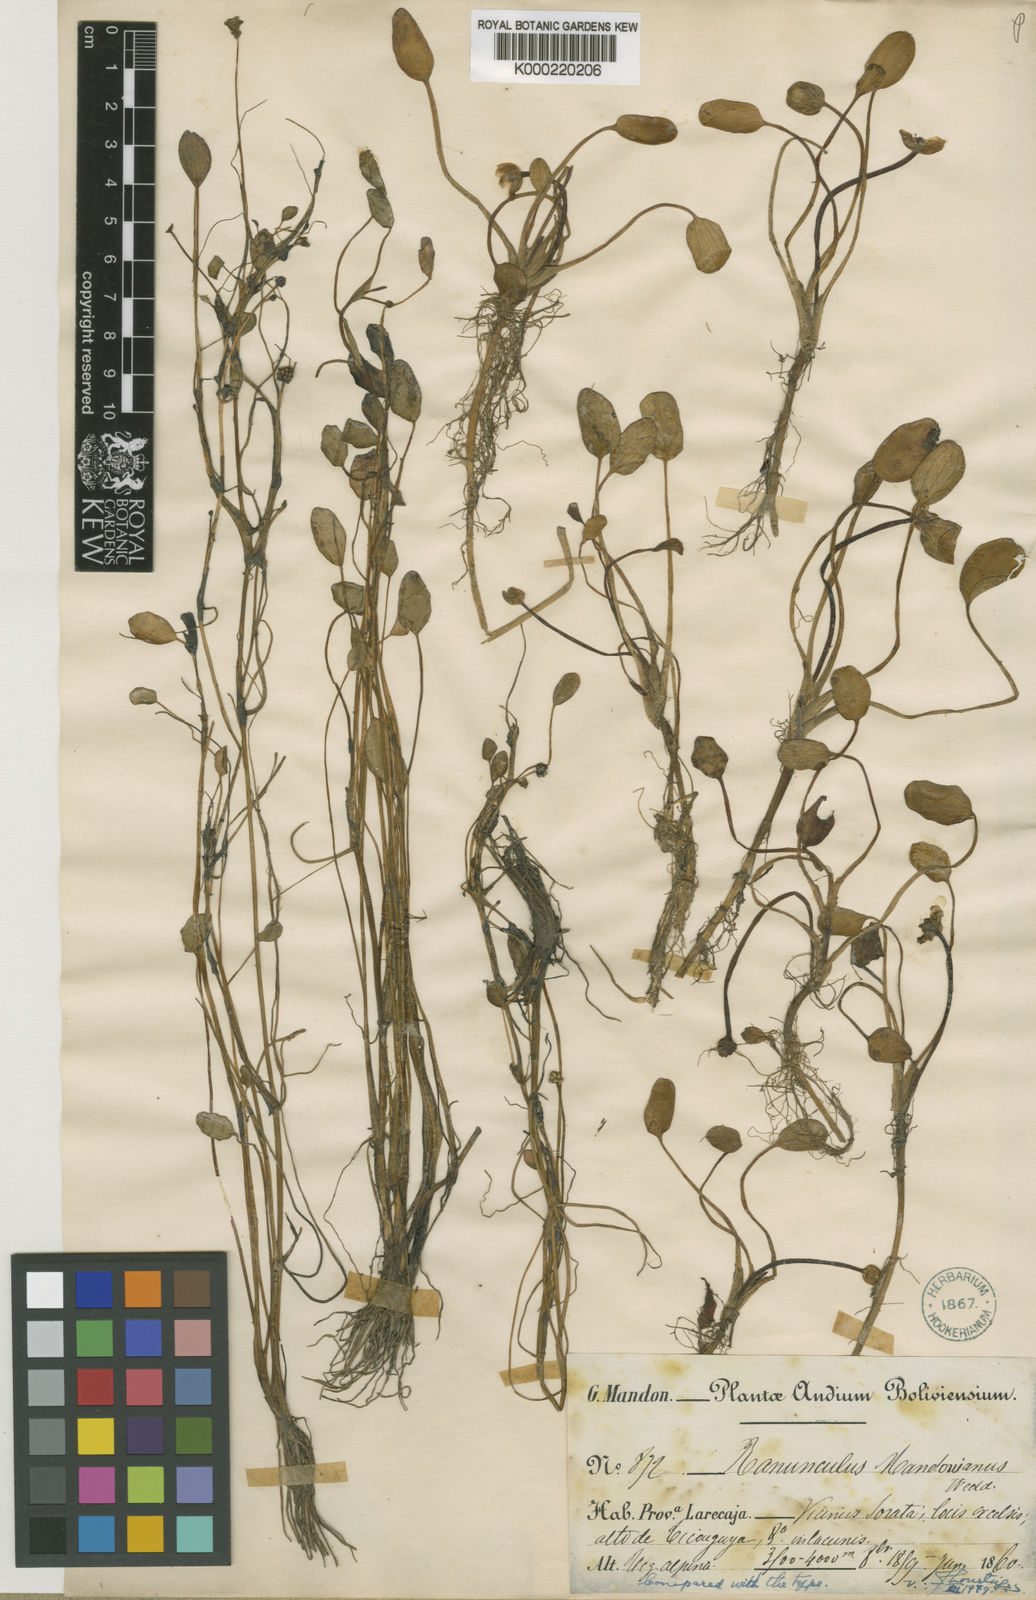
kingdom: Plantae
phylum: Tracheophyta
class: Magnoliopsida
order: Ranunculales
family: Ranunculaceae
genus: Ranunculus
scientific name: Ranunculus mandonianus
